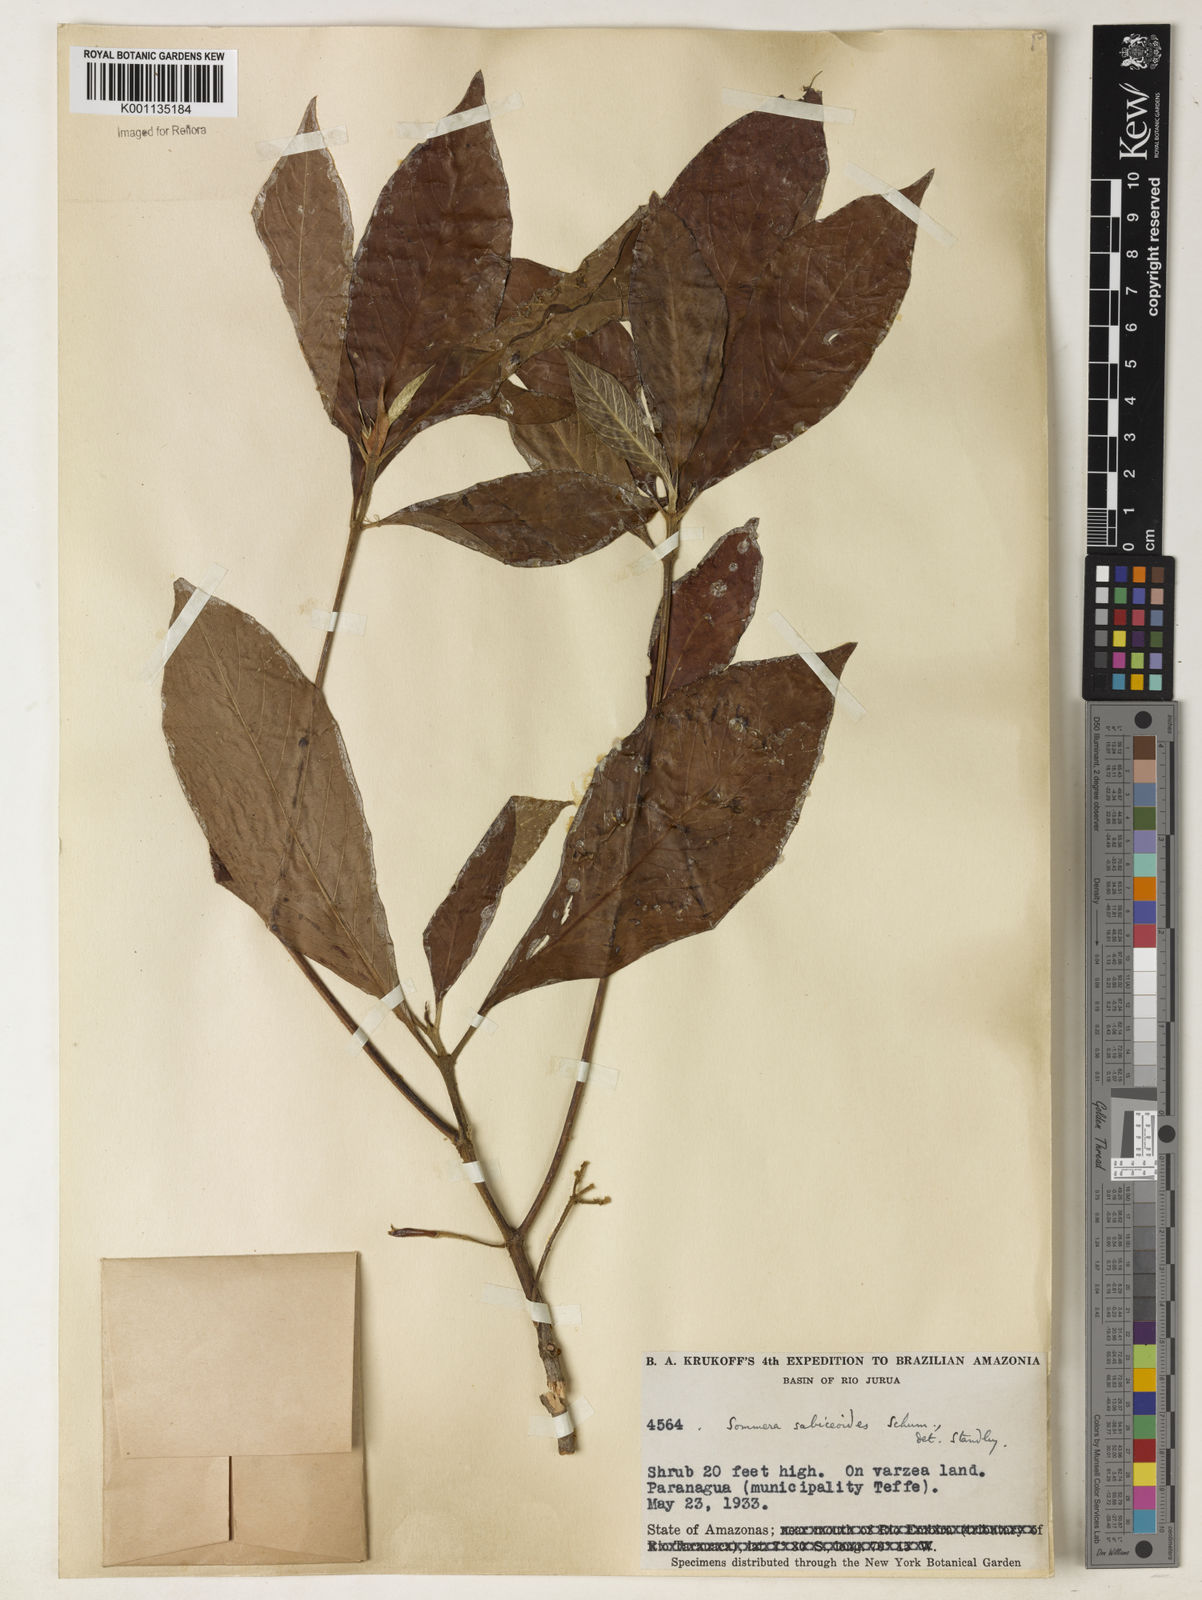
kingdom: Plantae
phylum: Tracheophyta
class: Magnoliopsida
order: Gentianales
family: Rubiaceae
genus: Sommera
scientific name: Sommera sabiceoides
